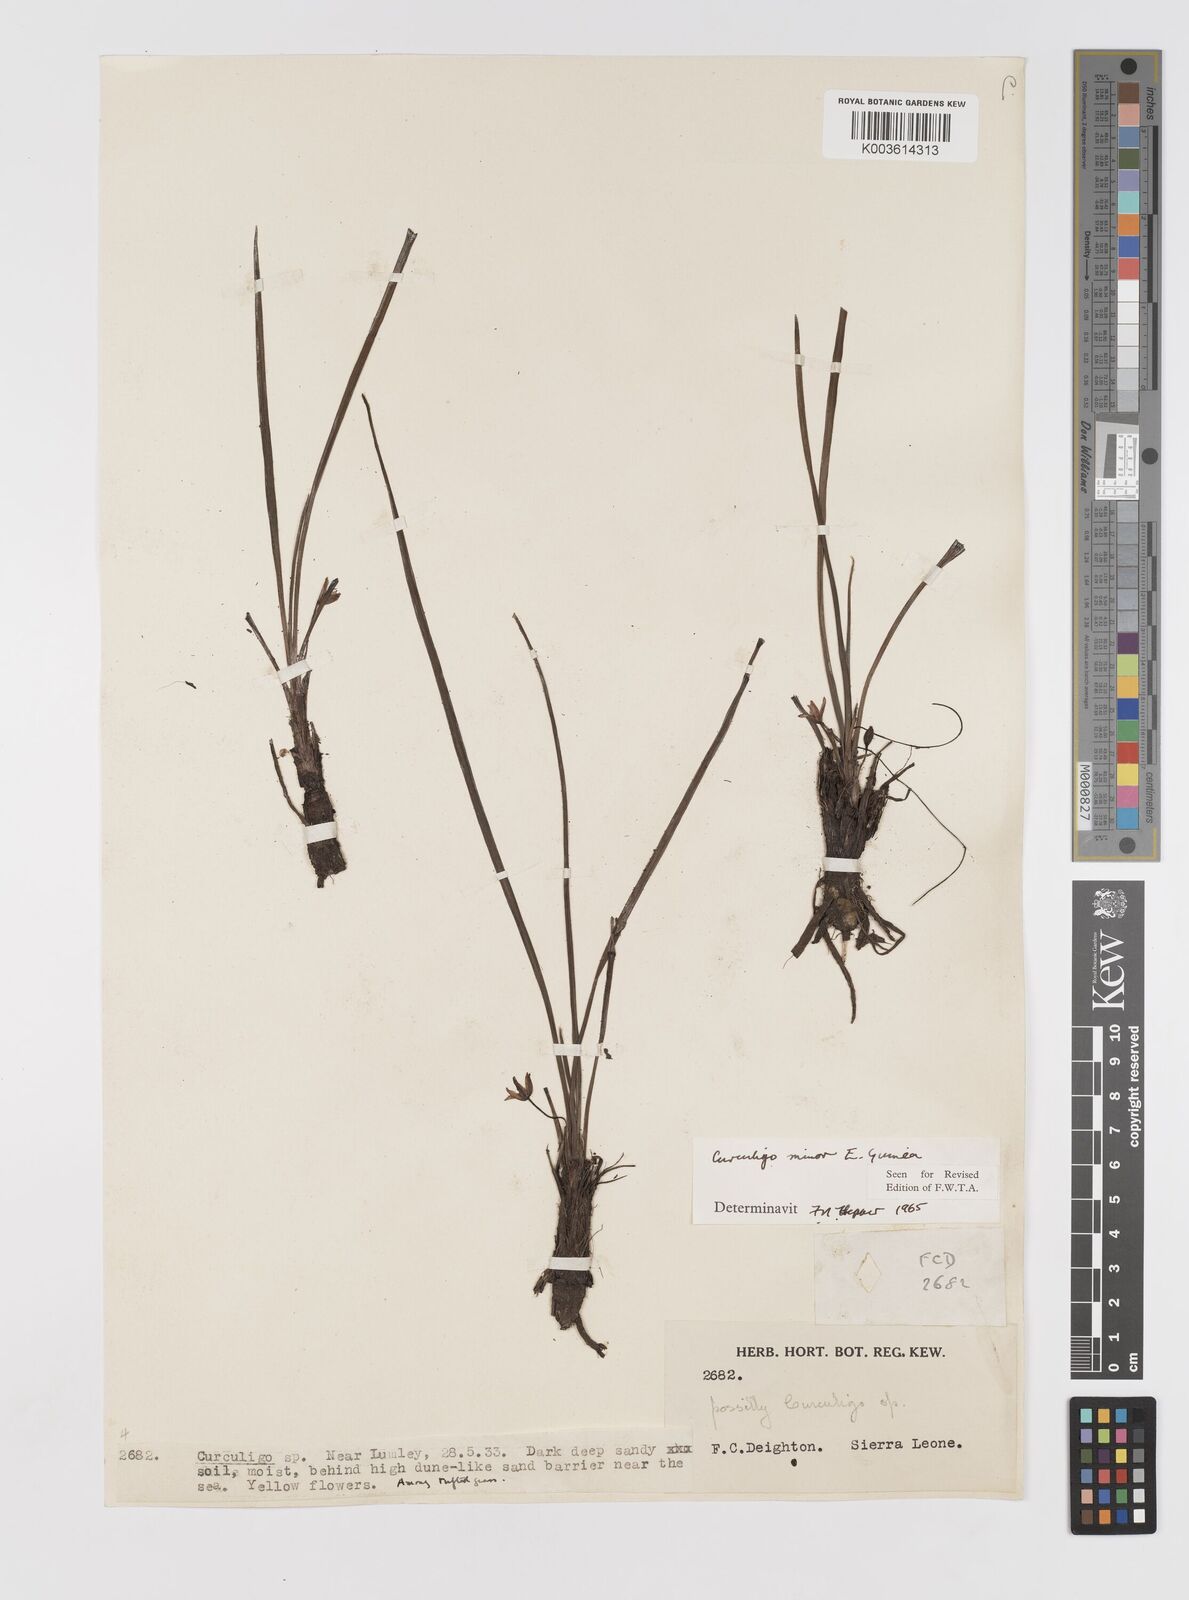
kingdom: Plantae
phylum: Tracheophyta
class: Liliopsida
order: Asparagales
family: Hypoxidaceae
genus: Curculigo
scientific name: Curculigo
